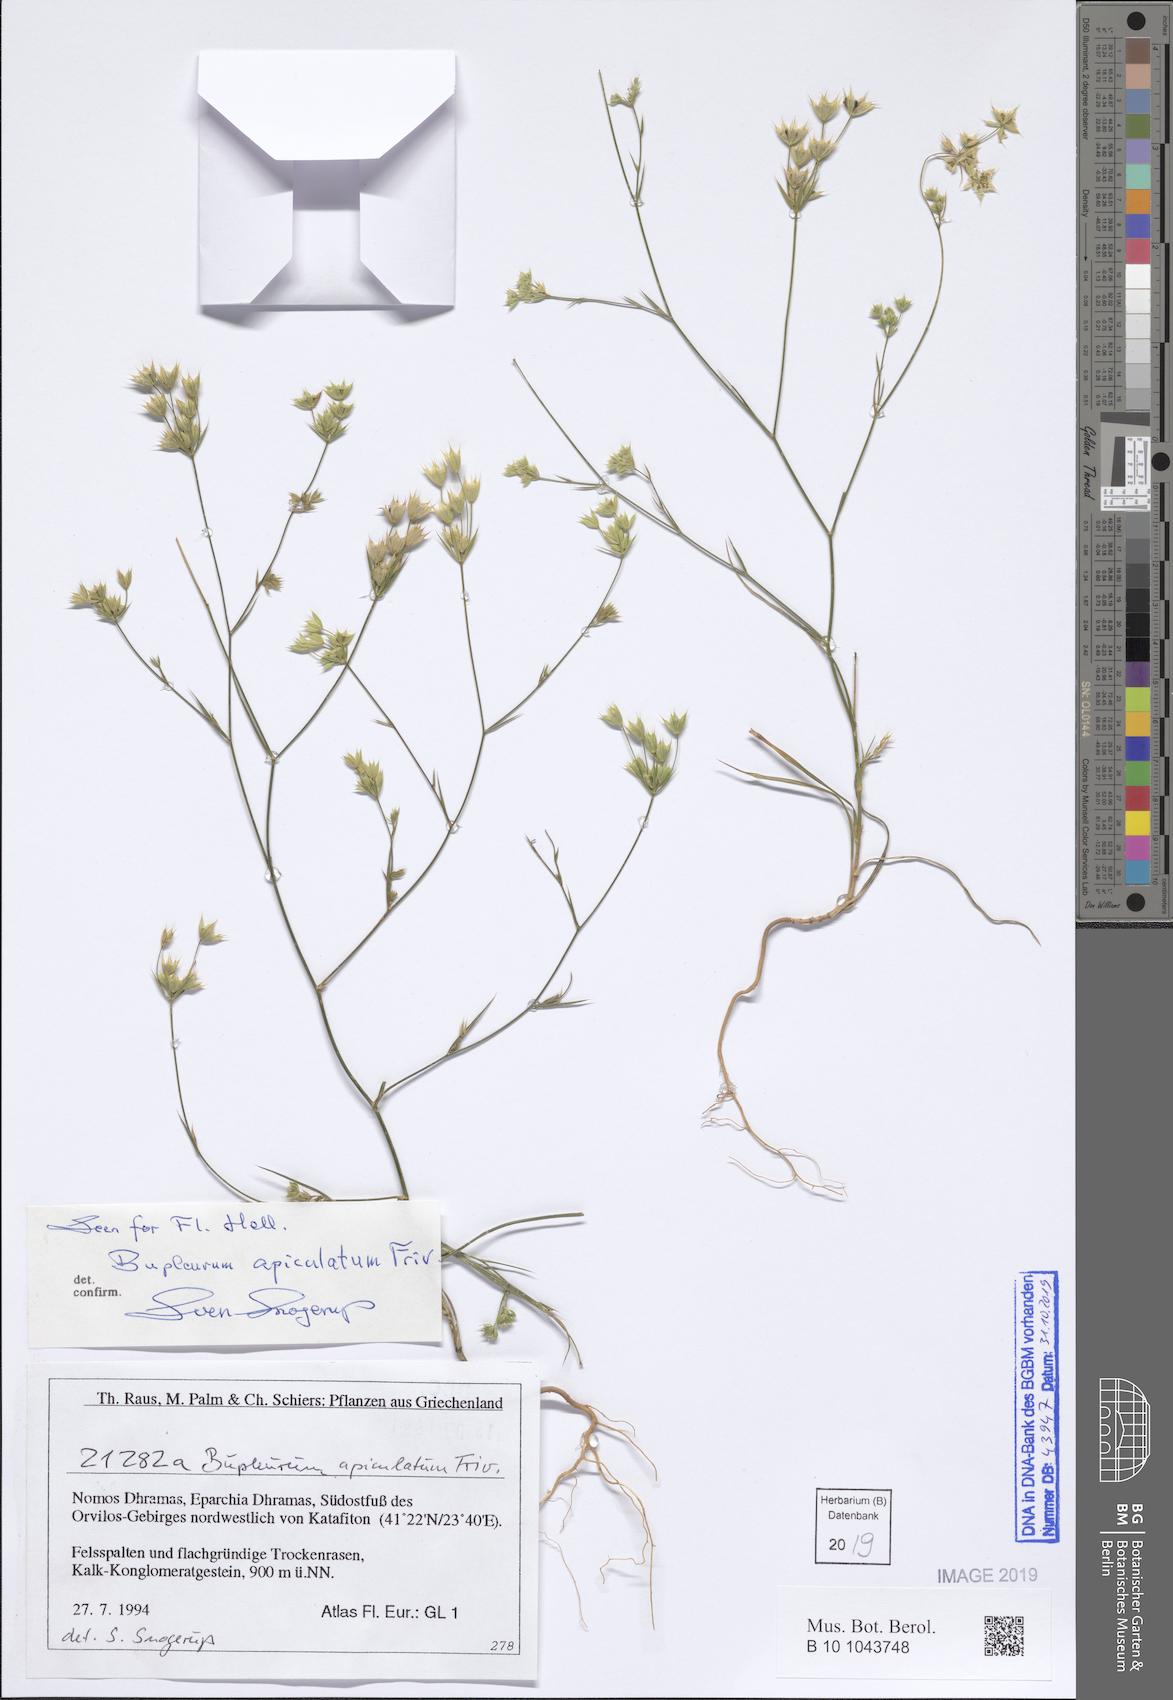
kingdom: Plantae
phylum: Tracheophyta
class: Magnoliopsida
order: Apiales
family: Apiaceae
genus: Bupleurum
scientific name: Bupleurum apiculatum
